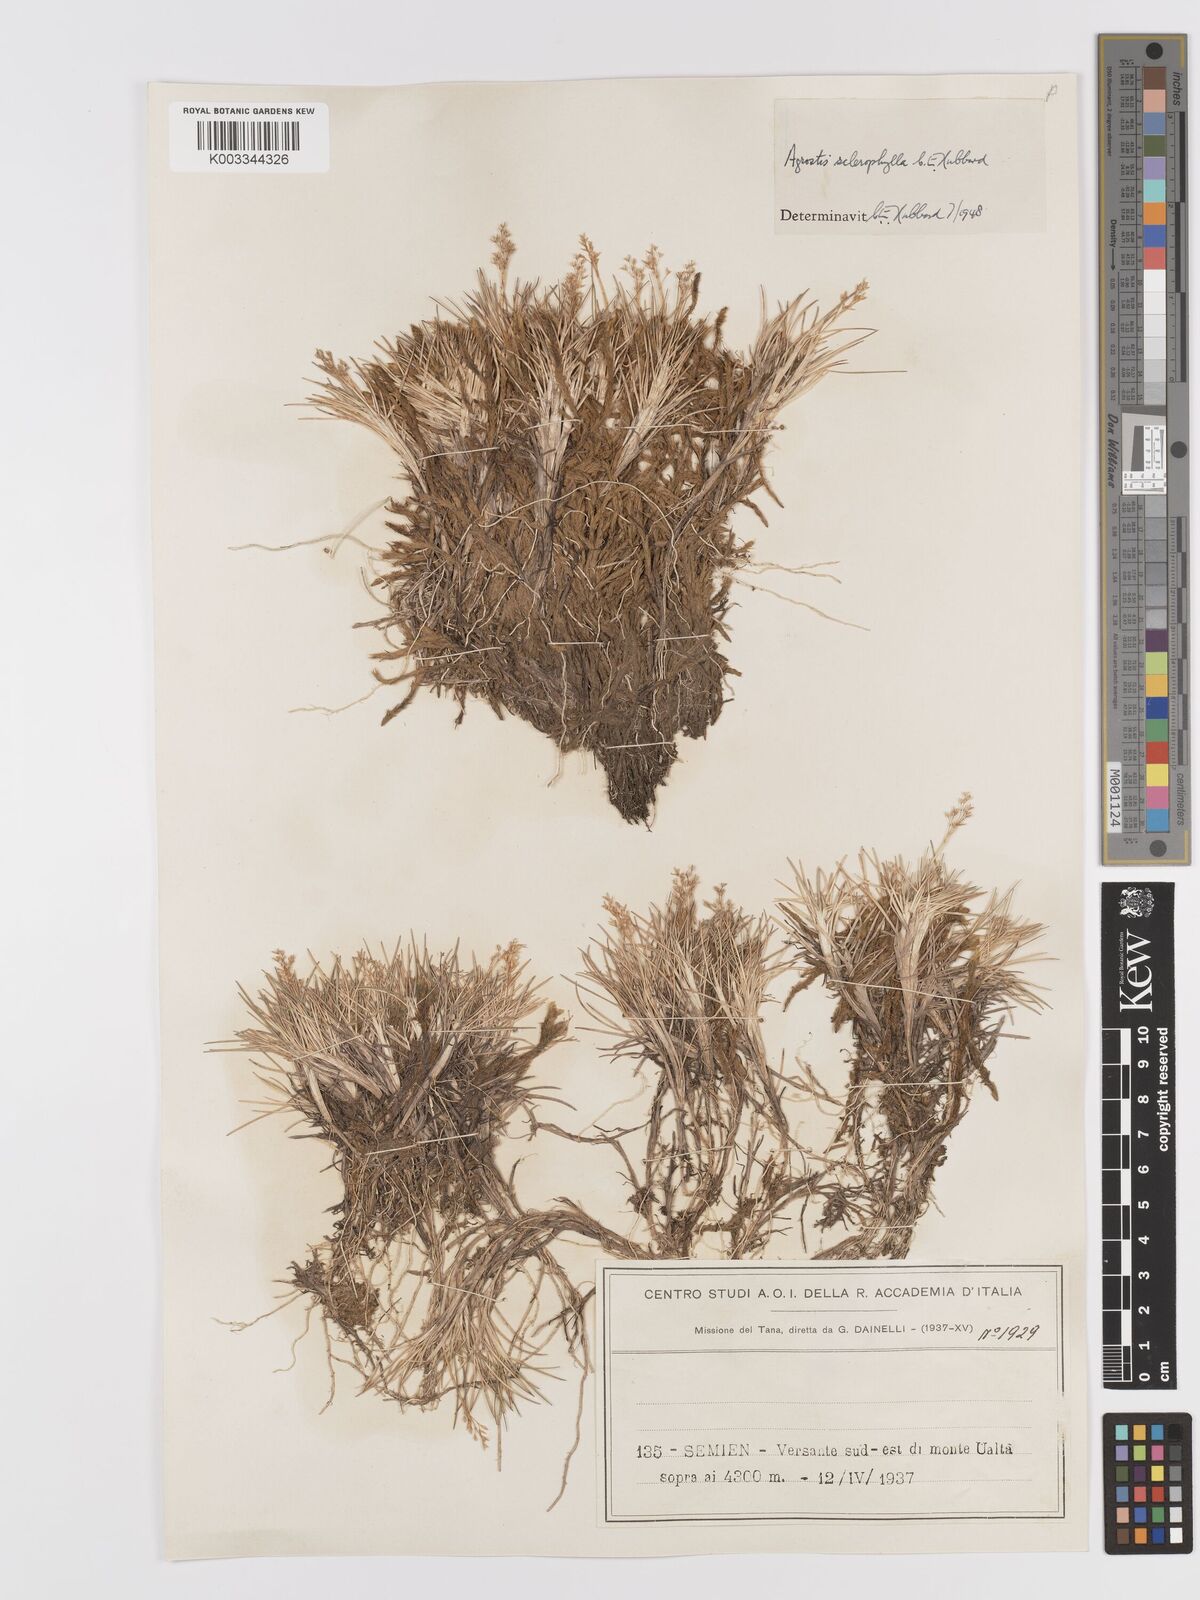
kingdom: Plantae
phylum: Tracheophyta
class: Liliopsida
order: Poales
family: Poaceae
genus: Agrostis
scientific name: Agrostis sclerophylla
